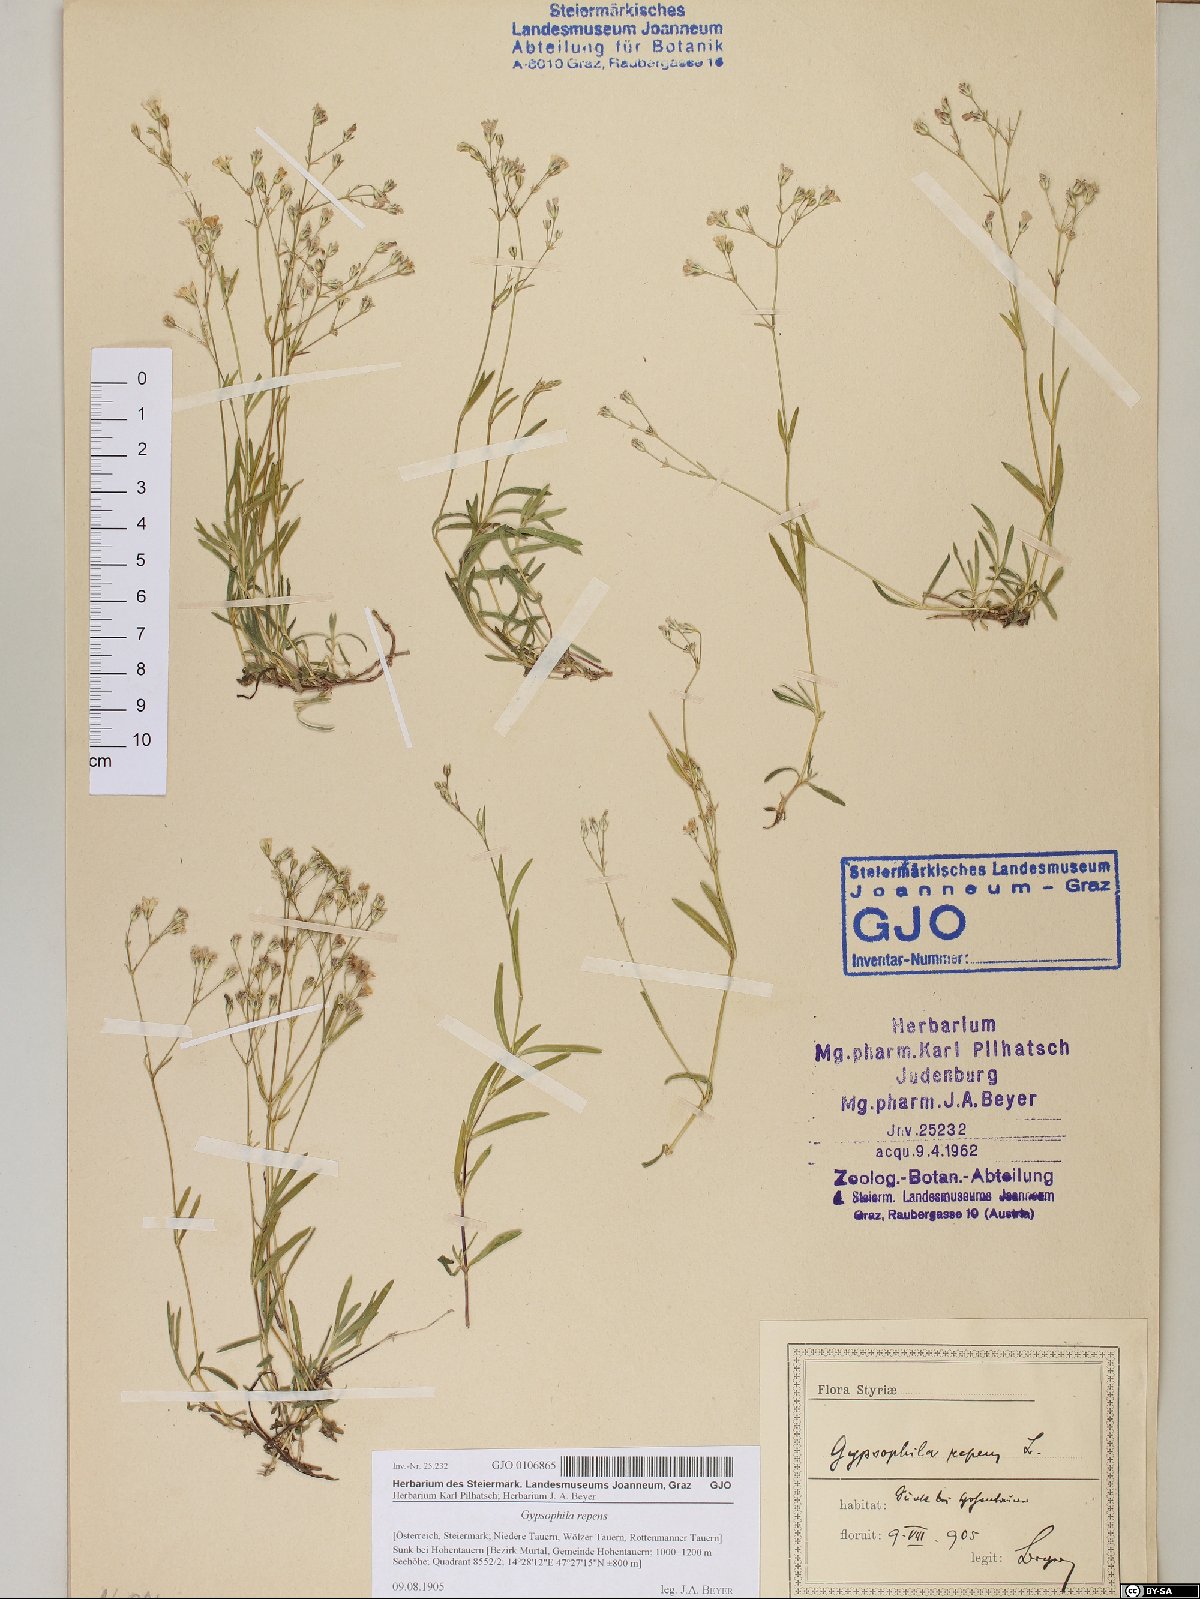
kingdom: Plantae
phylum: Tracheophyta
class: Magnoliopsida
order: Caryophyllales
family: Caryophyllaceae
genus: Gypsophila
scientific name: Gypsophila repens
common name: Creeping baby's-breath
